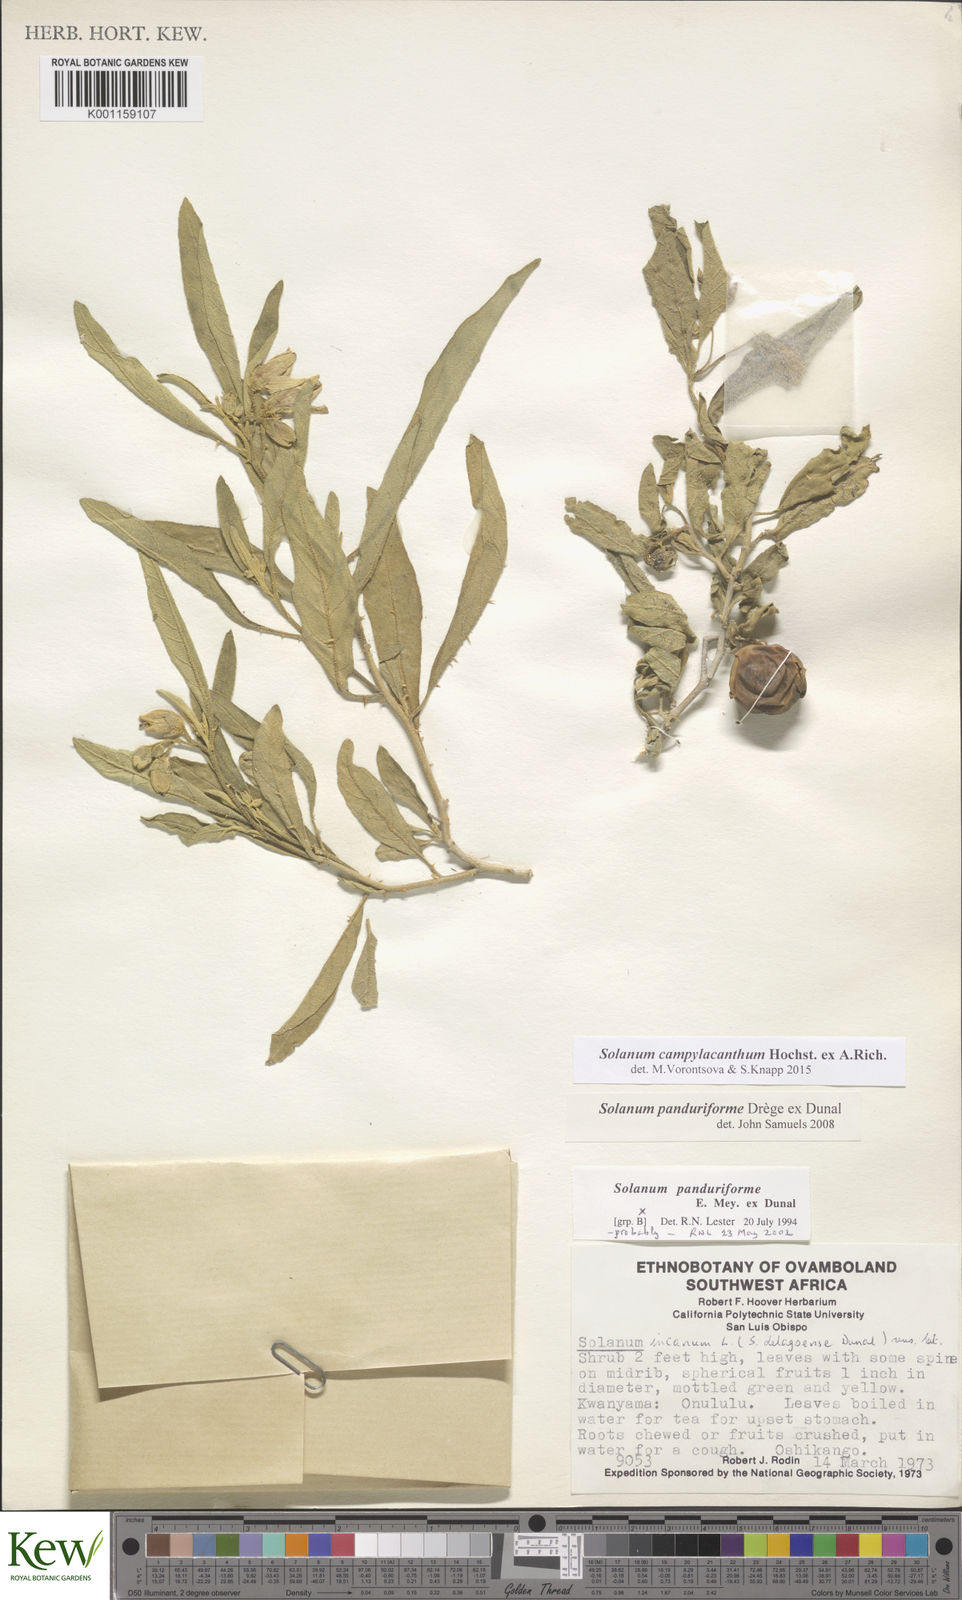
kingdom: Plantae
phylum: Tracheophyta
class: Magnoliopsida
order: Solanales
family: Solanaceae
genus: Solanum
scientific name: Solanum campylacanthum
